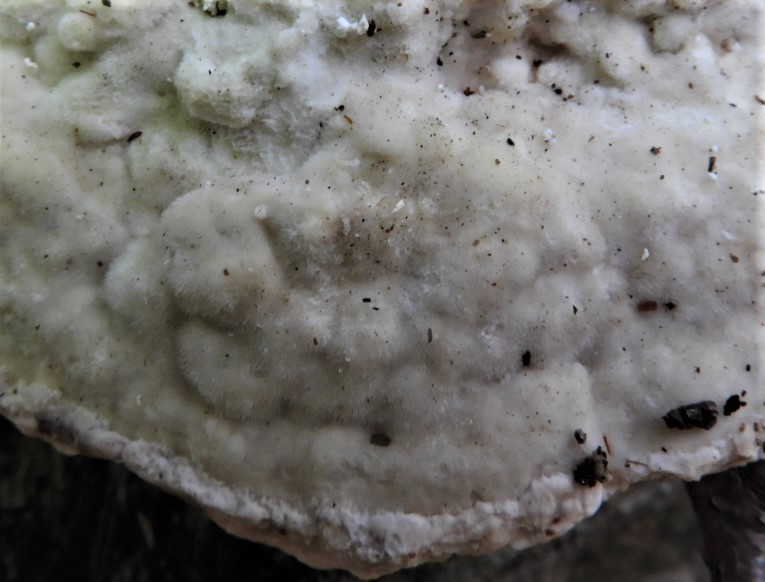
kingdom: Fungi
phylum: Basidiomycota
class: Agaricomycetes
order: Polyporales
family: Polyporaceae
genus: Trametes
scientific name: Trametes gibbosa
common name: puklet læderporesvamp
